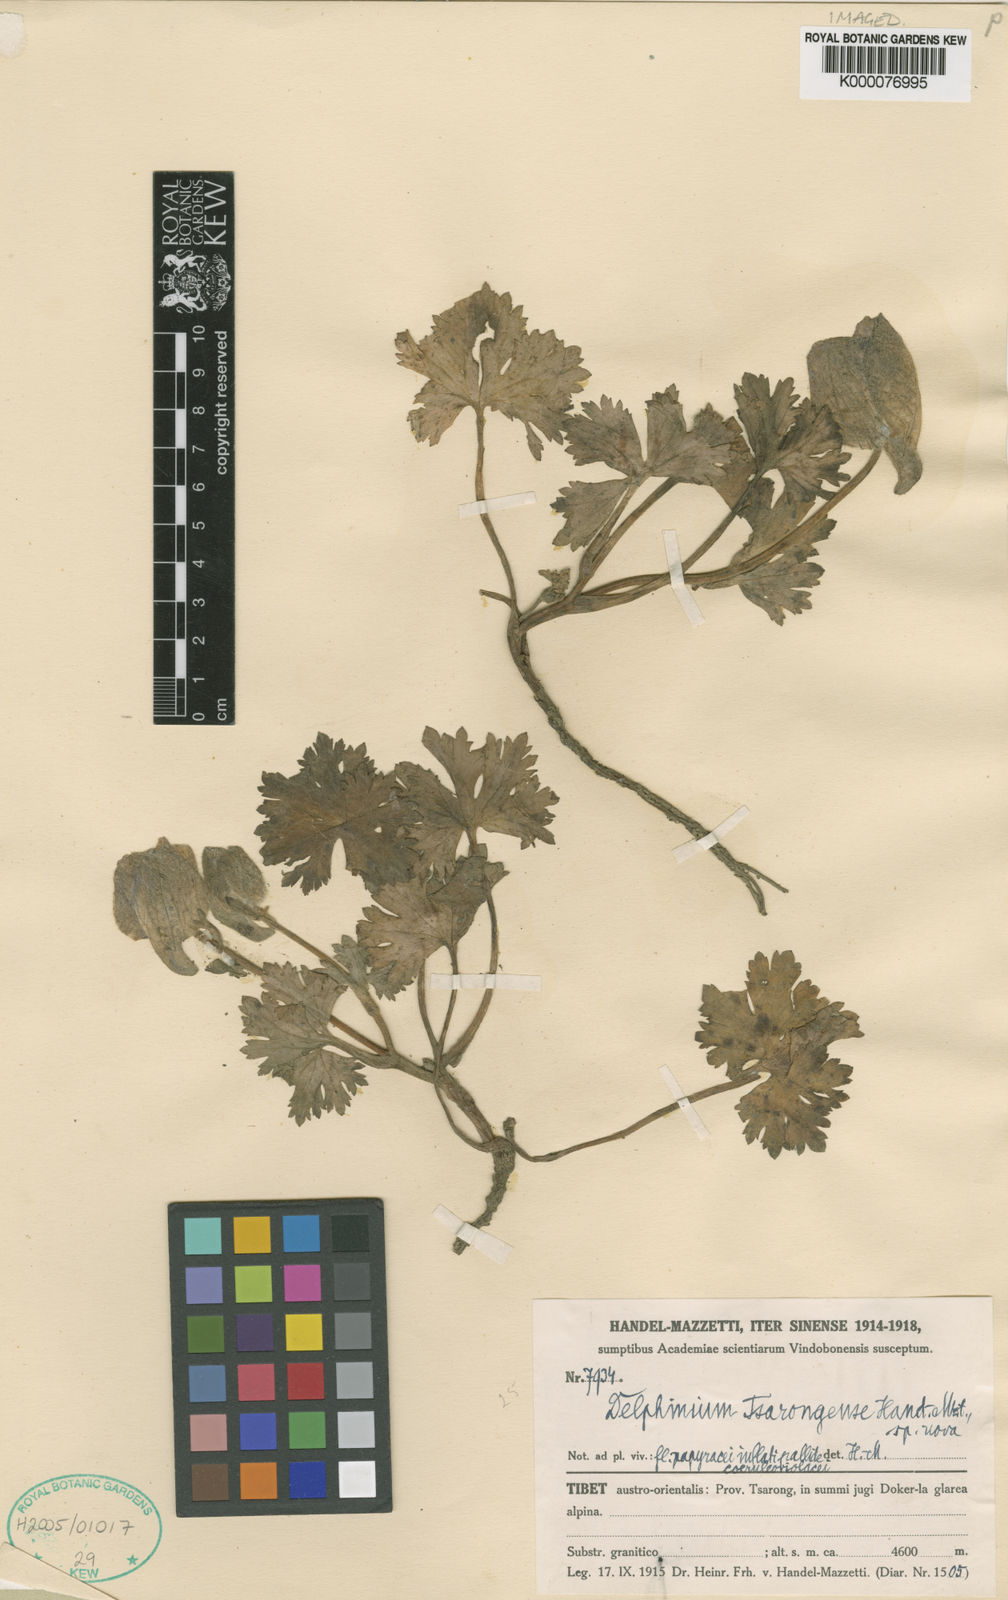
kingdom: Plantae
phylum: Tracheophyta
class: Magnoliopsida
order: Ranunculales
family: Ranunculaceae
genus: Delphinium
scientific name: Delphinium chrysotrichum
